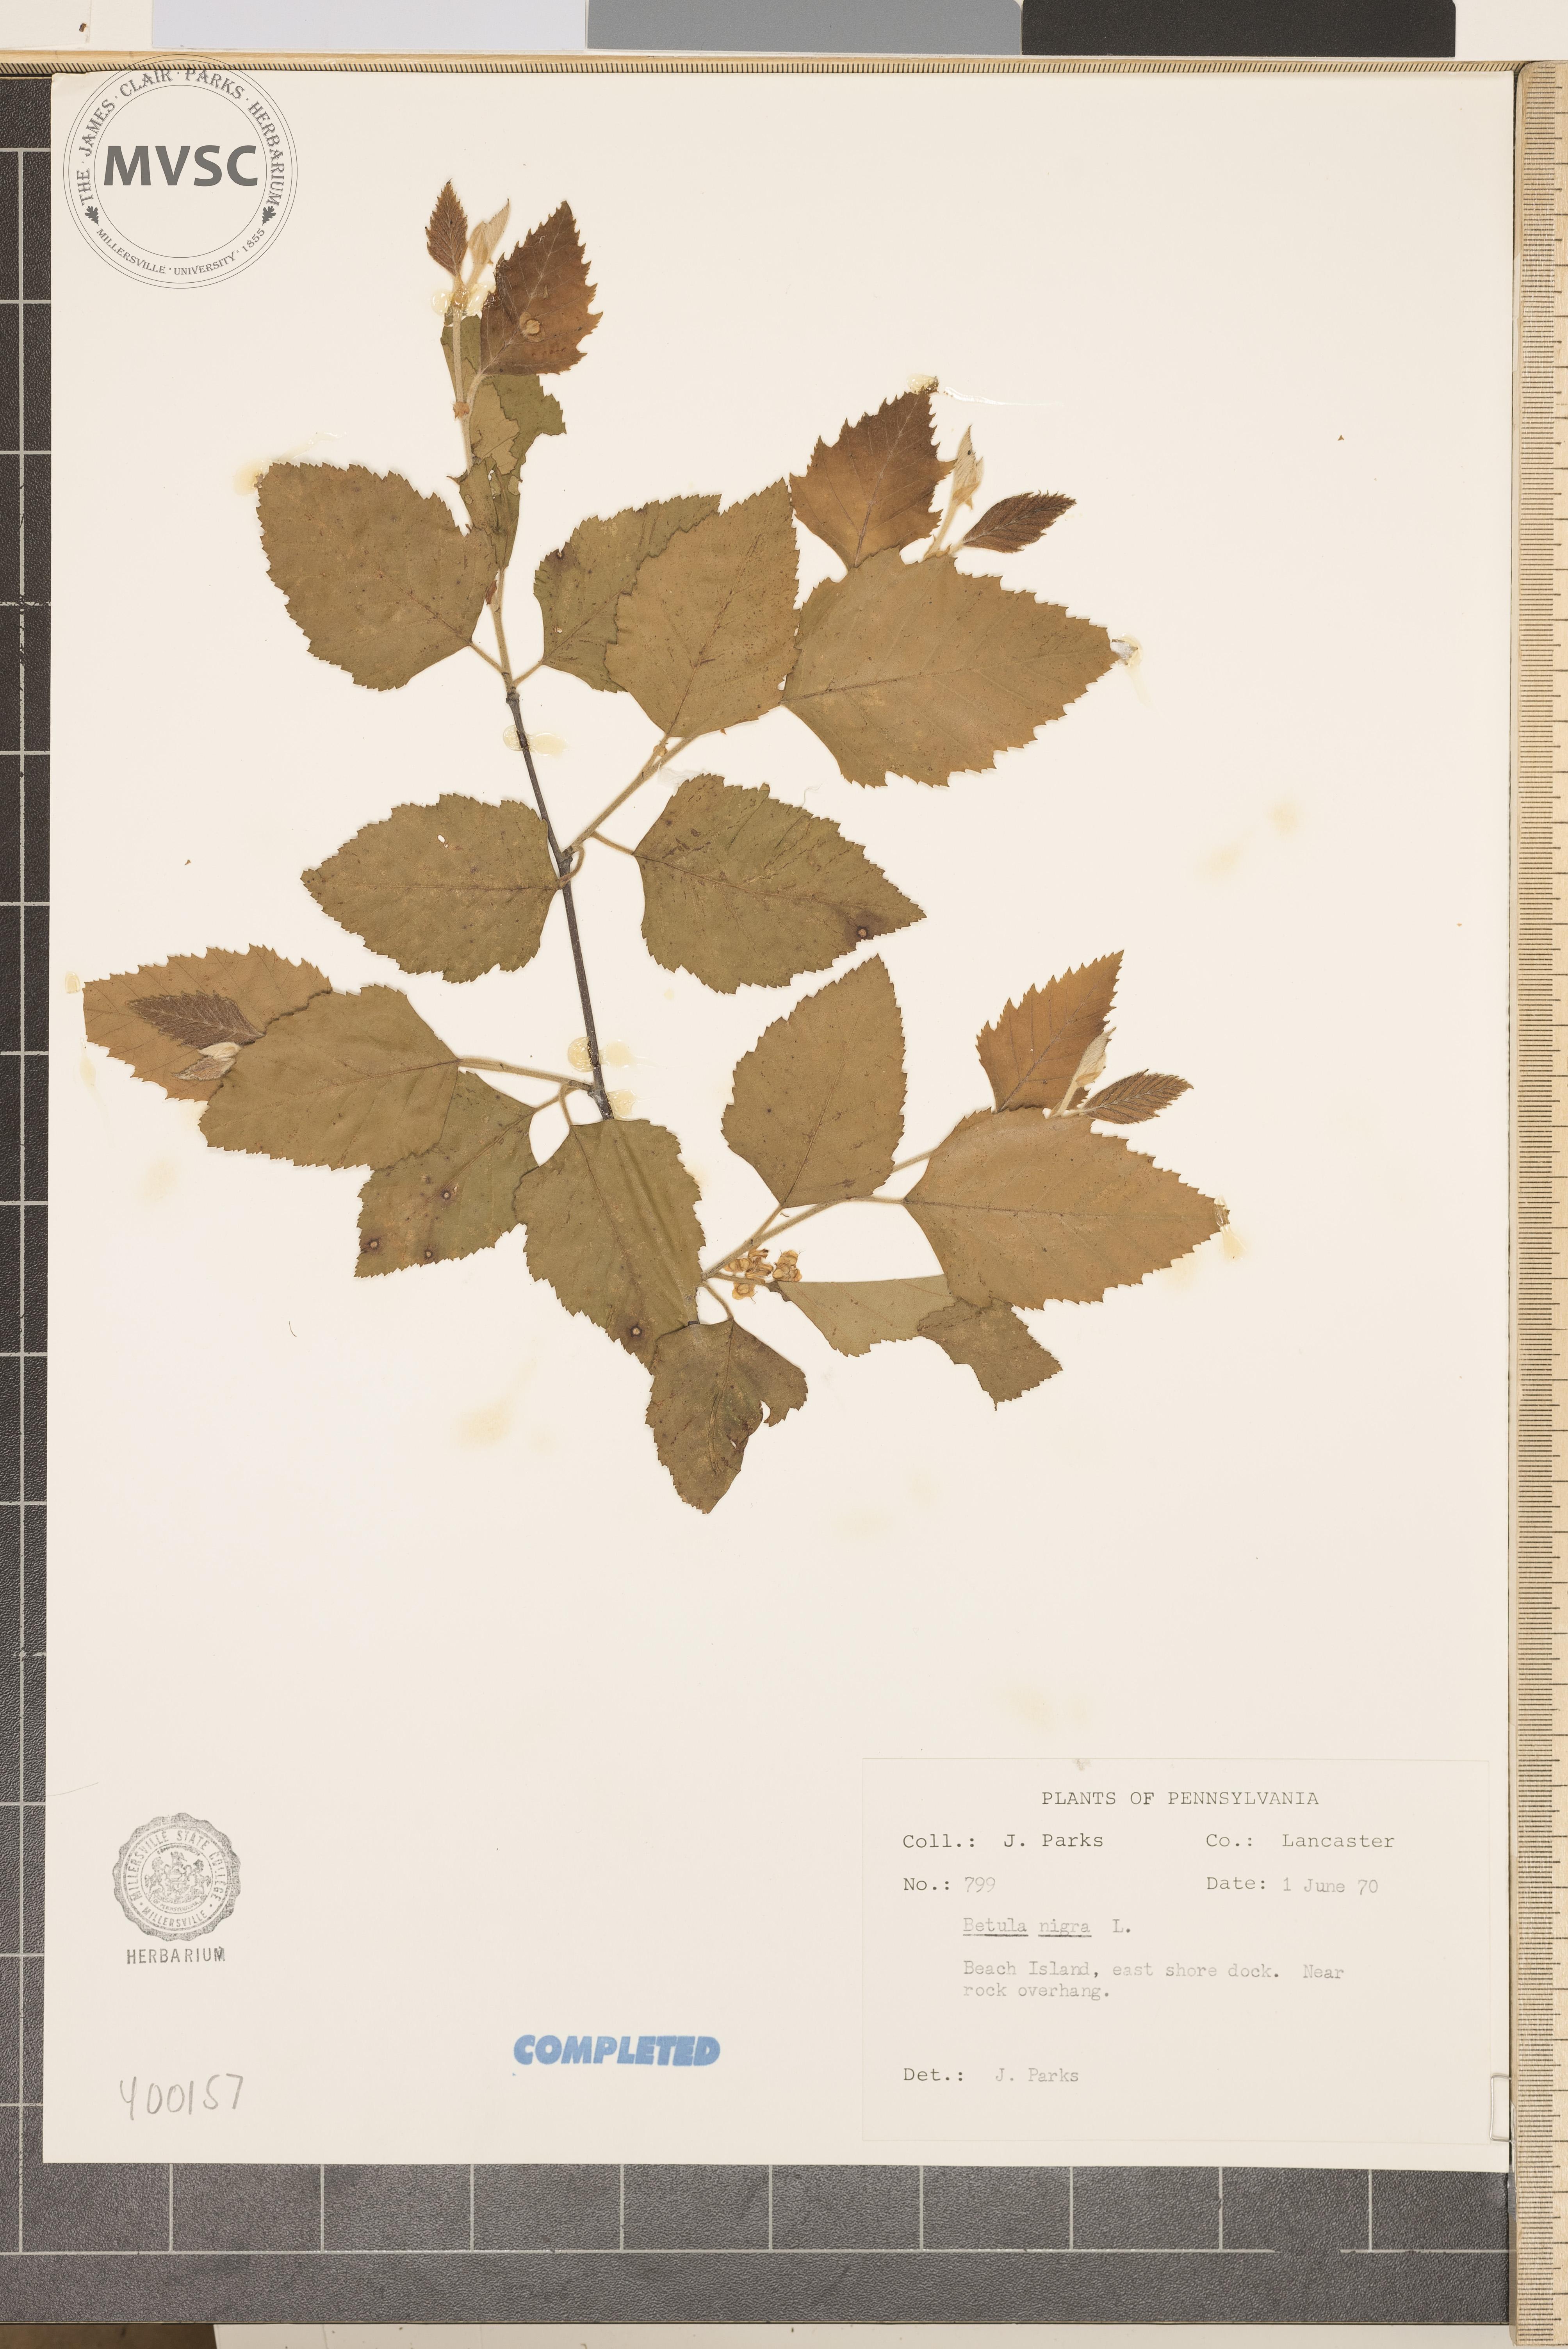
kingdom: Plantae
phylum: Tracheophyta
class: Magnoliopsida
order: Fagales
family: Betulaceae
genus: Betula
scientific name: Betula nigra
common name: river birch
